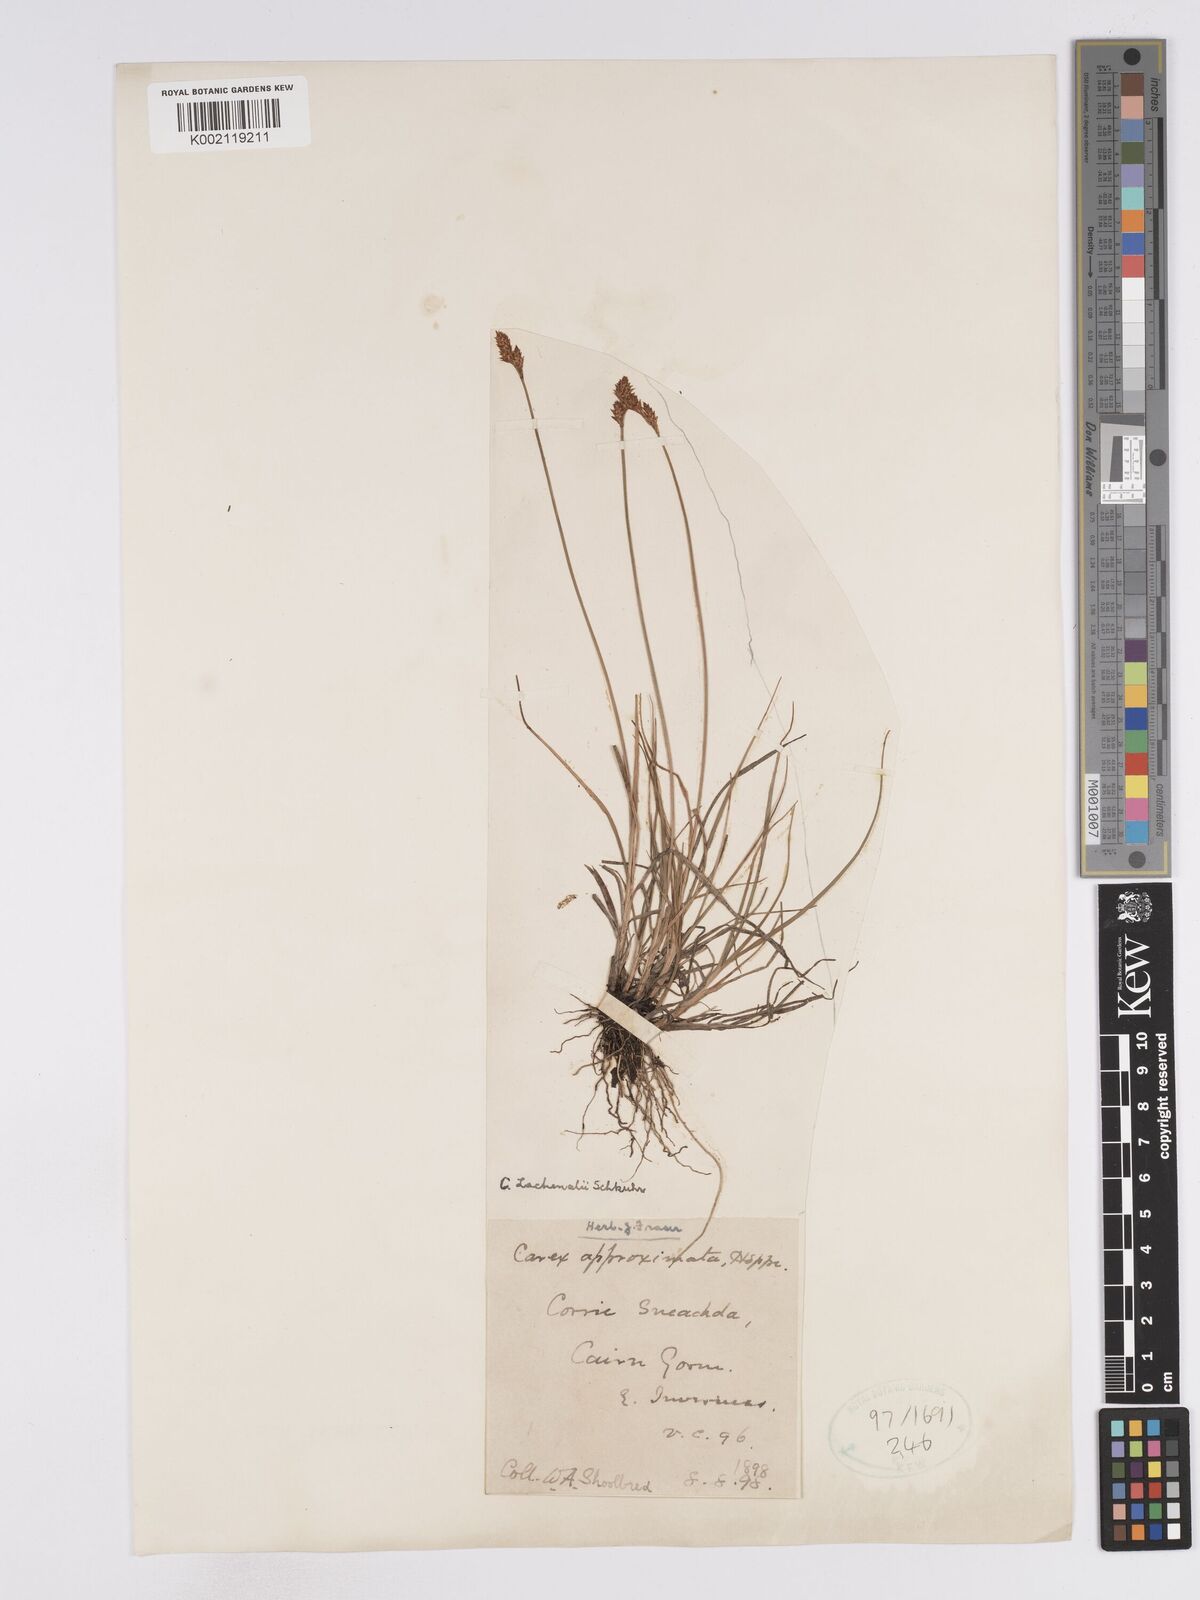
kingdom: Plantae
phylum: Tracheophyta
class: Liliopsida
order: Poales
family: Cyperaceae
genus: Carex
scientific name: Carex lachenalii
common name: Hare's-foot sedge
